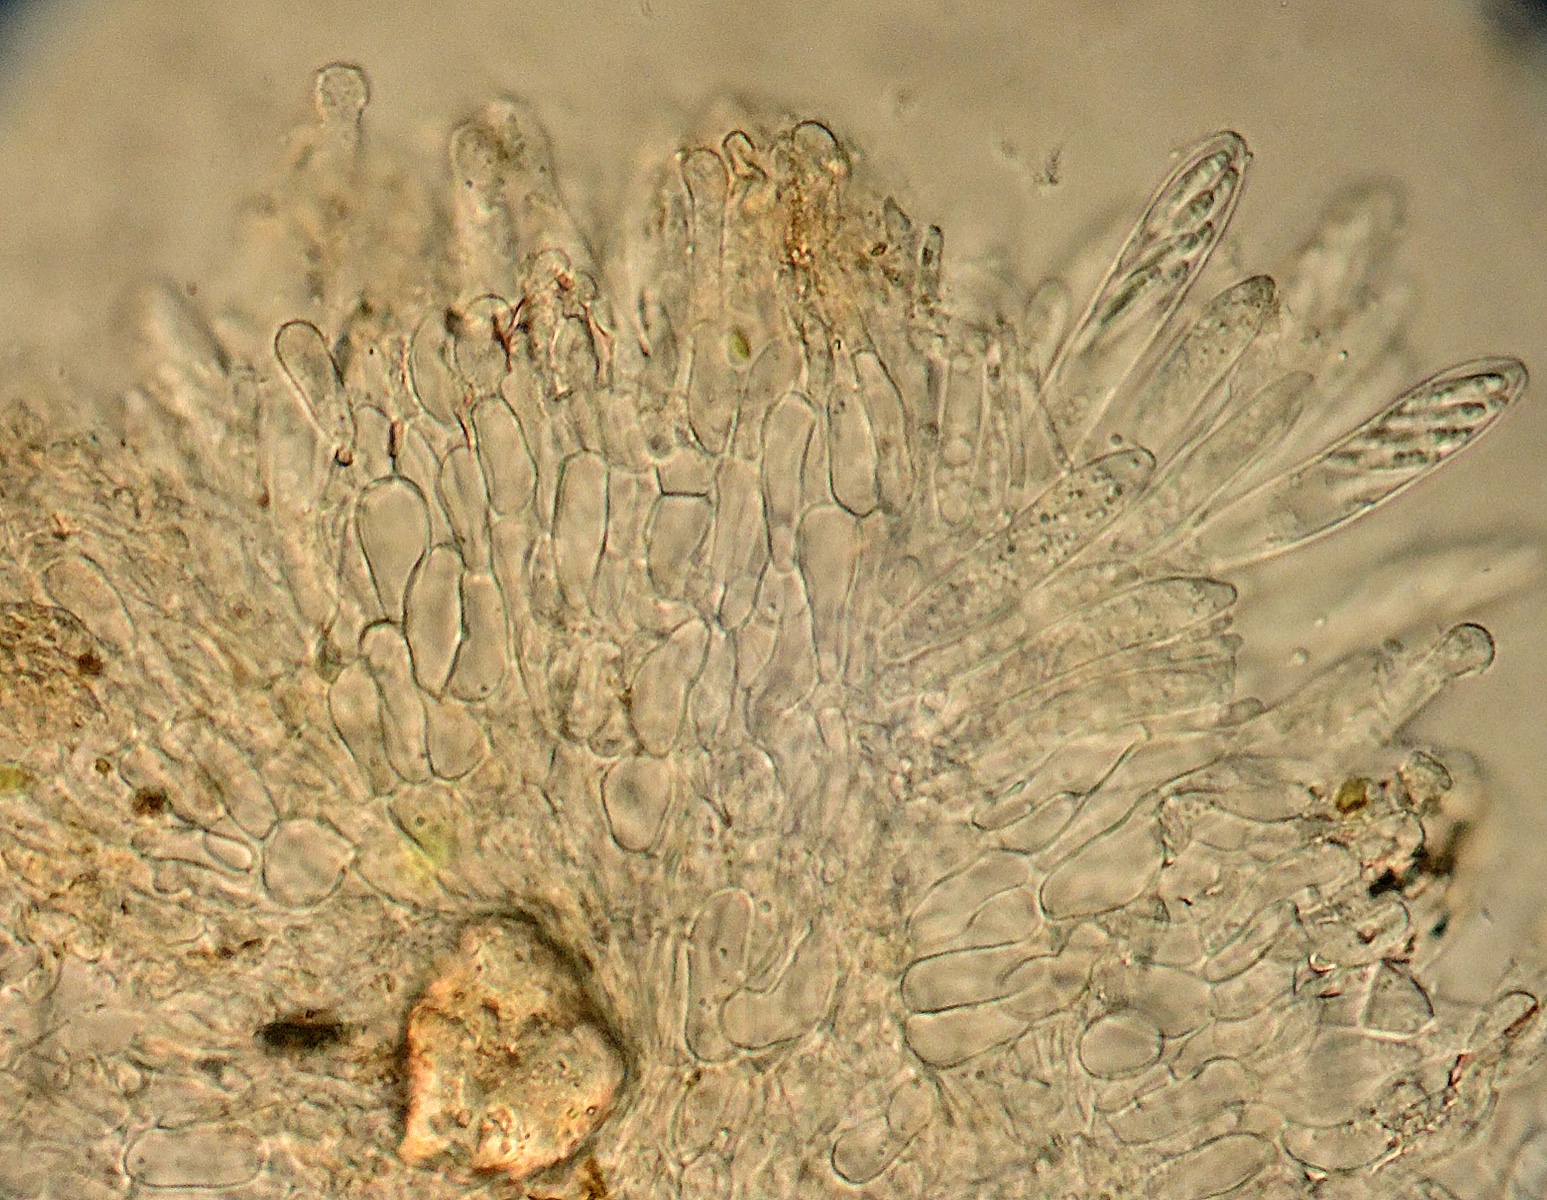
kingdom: Fungi
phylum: Ascomycota
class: Leotiomycetes
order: Helotiales
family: Hyaloscyphaceae
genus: Cistella
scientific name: Cistella fugiens
